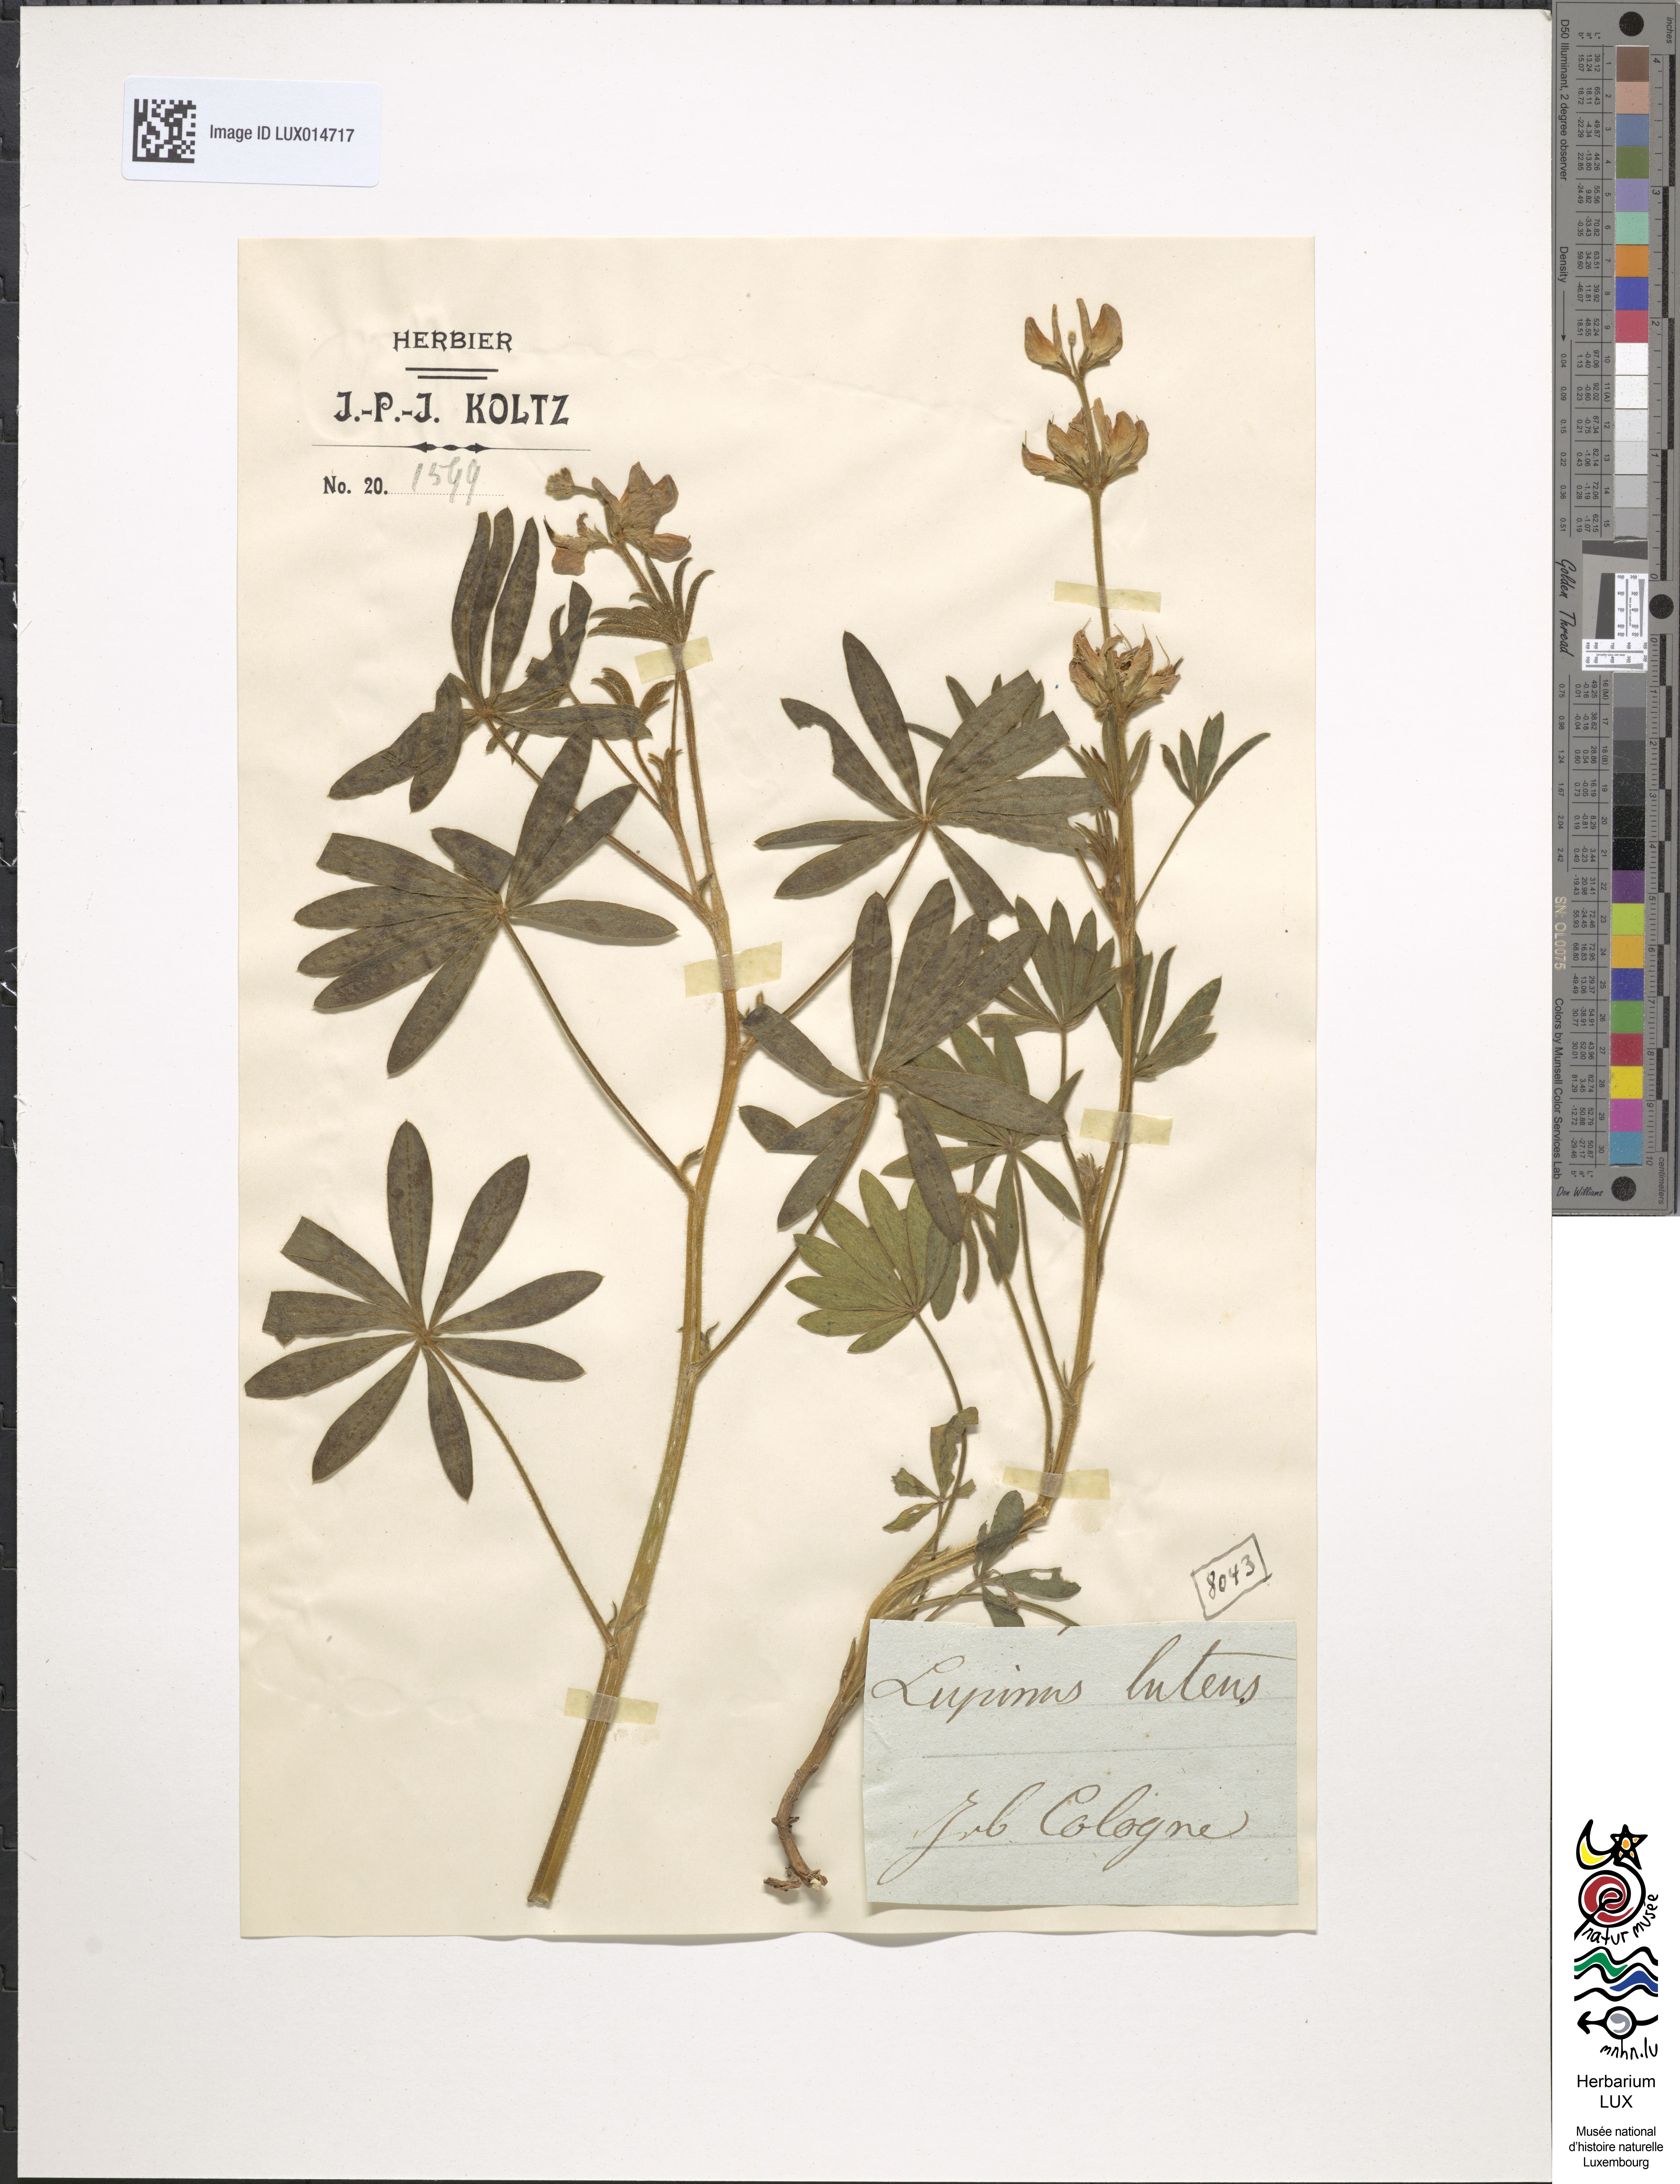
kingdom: Plantae
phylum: Tracheophyta
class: Magnoliopsida
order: Fabales
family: Fabaceae
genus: Lupinus
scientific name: Lupinus luteus
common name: European yellow lupine
